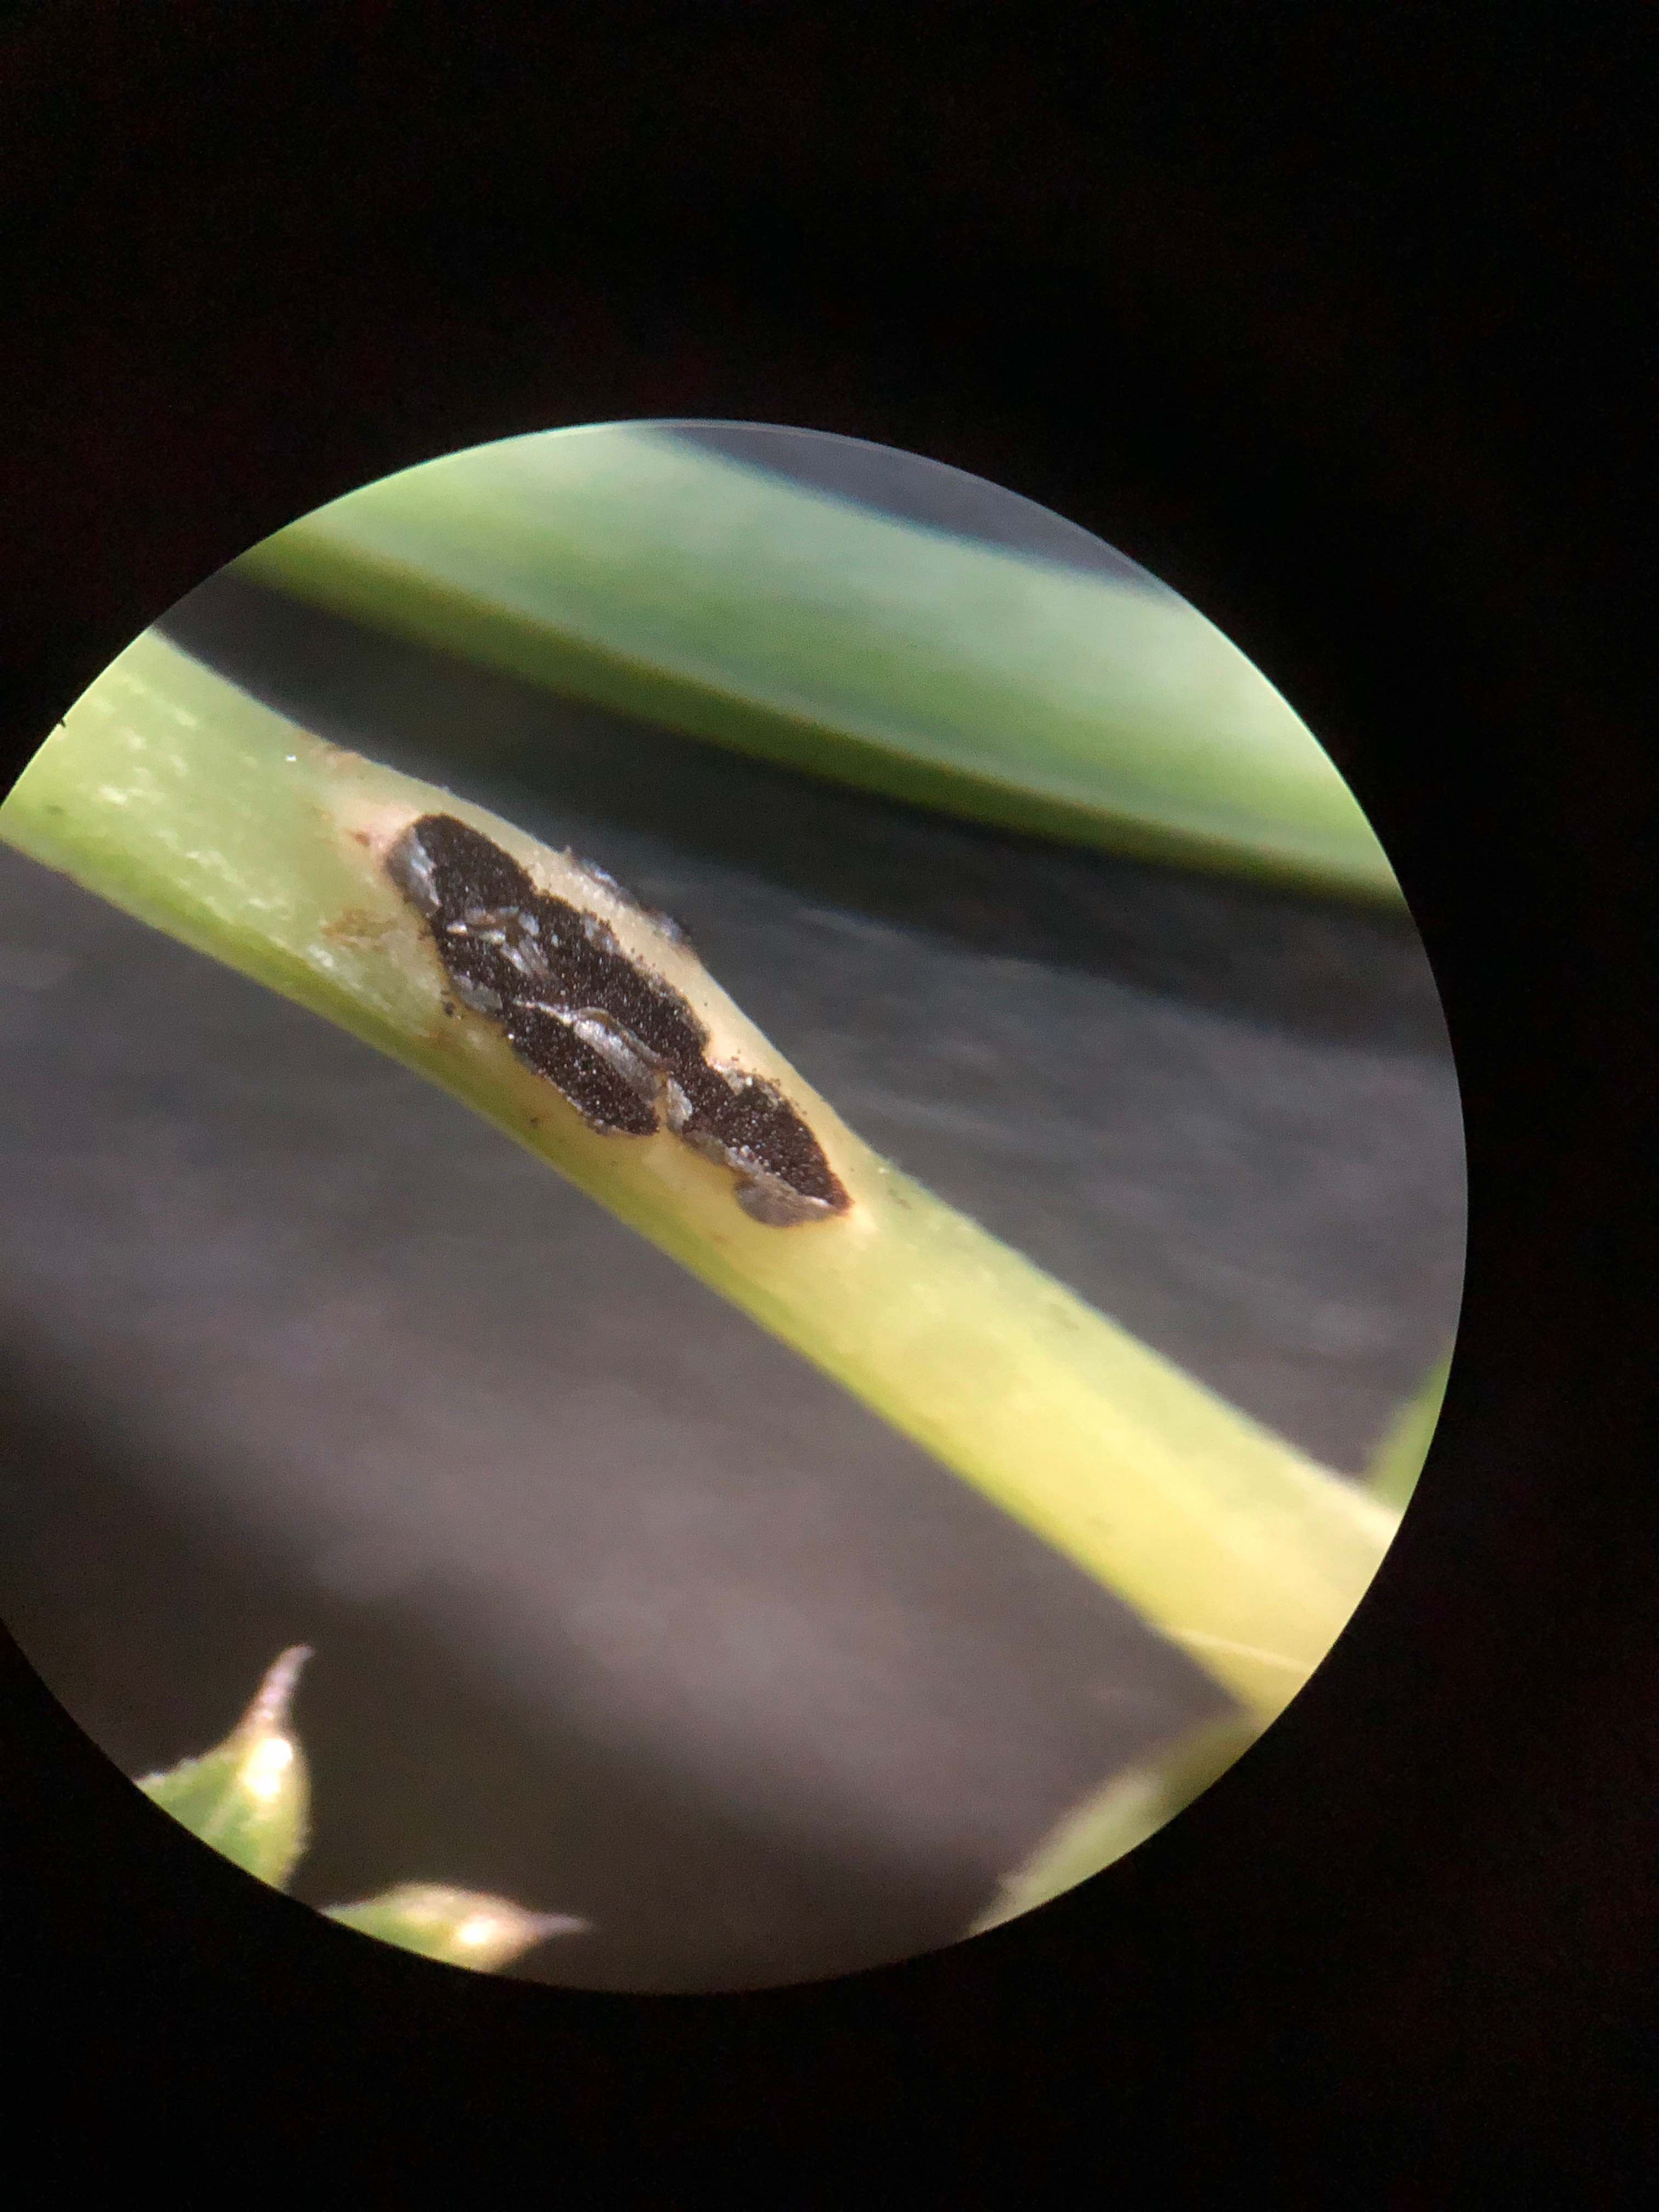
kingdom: Fungi
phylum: Basidiomycota
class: Pucciniomycetes
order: Pucciniales
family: Pucciniaceae
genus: Puccinia
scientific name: Puccinia
